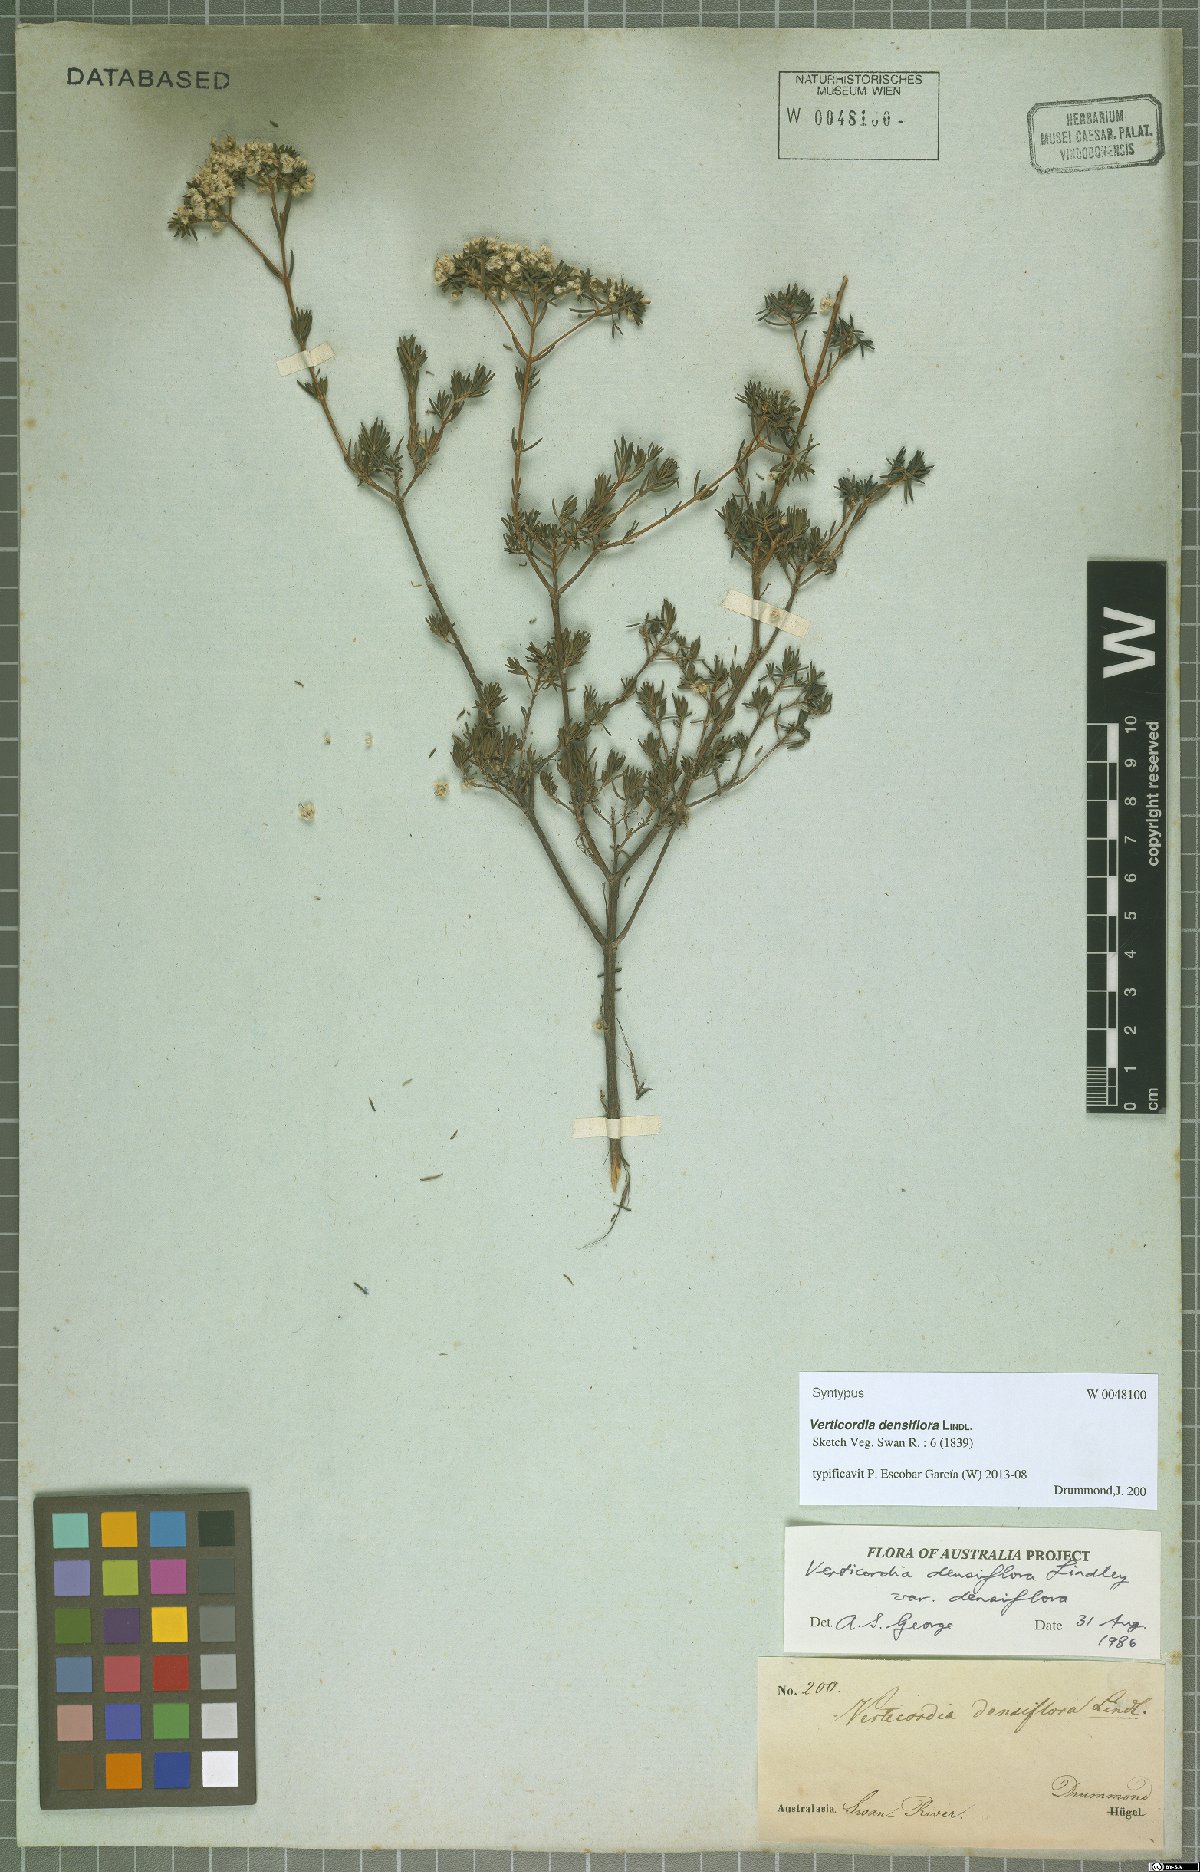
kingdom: Plantae
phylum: Tracheophyta
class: Magnoliopsida
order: Myrtales
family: Myrtaceae
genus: Verticordia
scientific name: Verticordia densiflora
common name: Compact feather-flower
